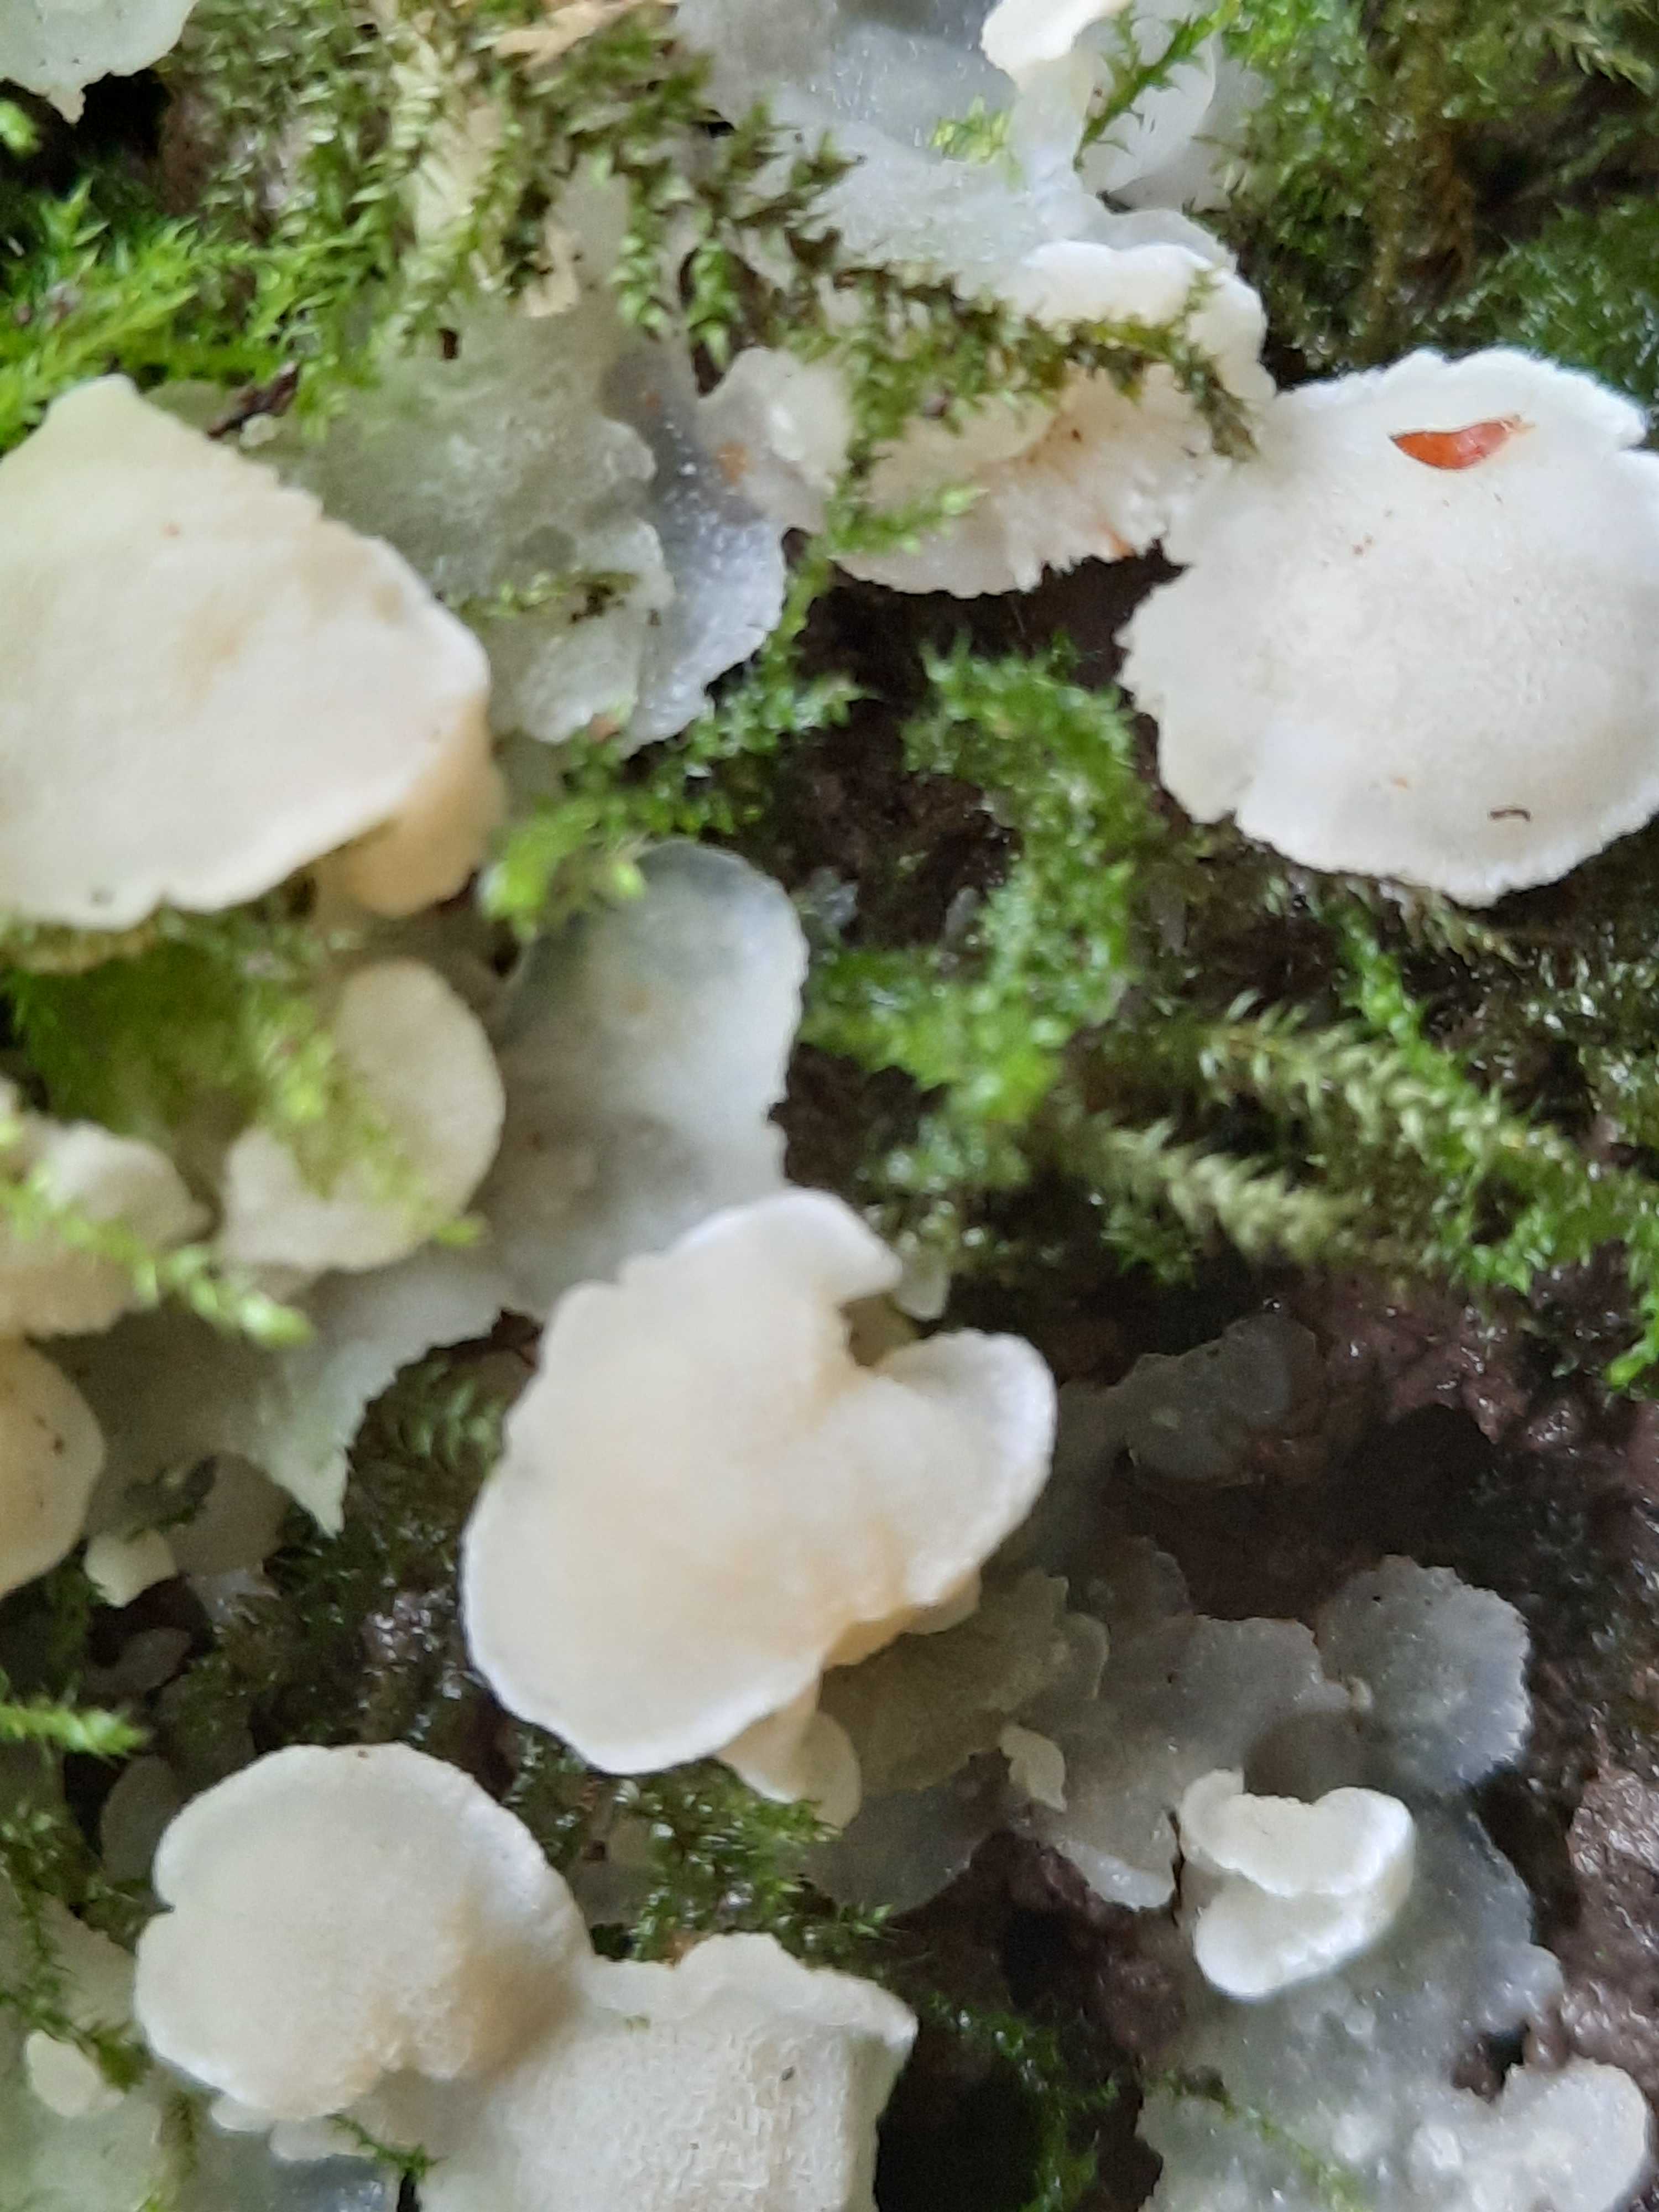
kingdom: Fungi
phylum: Basidiomycota
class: Agaricomycetes
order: Polyporales
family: Meruliaceae
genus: Physisporinus
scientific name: Physisporinus vitreus
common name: mastesvamp
